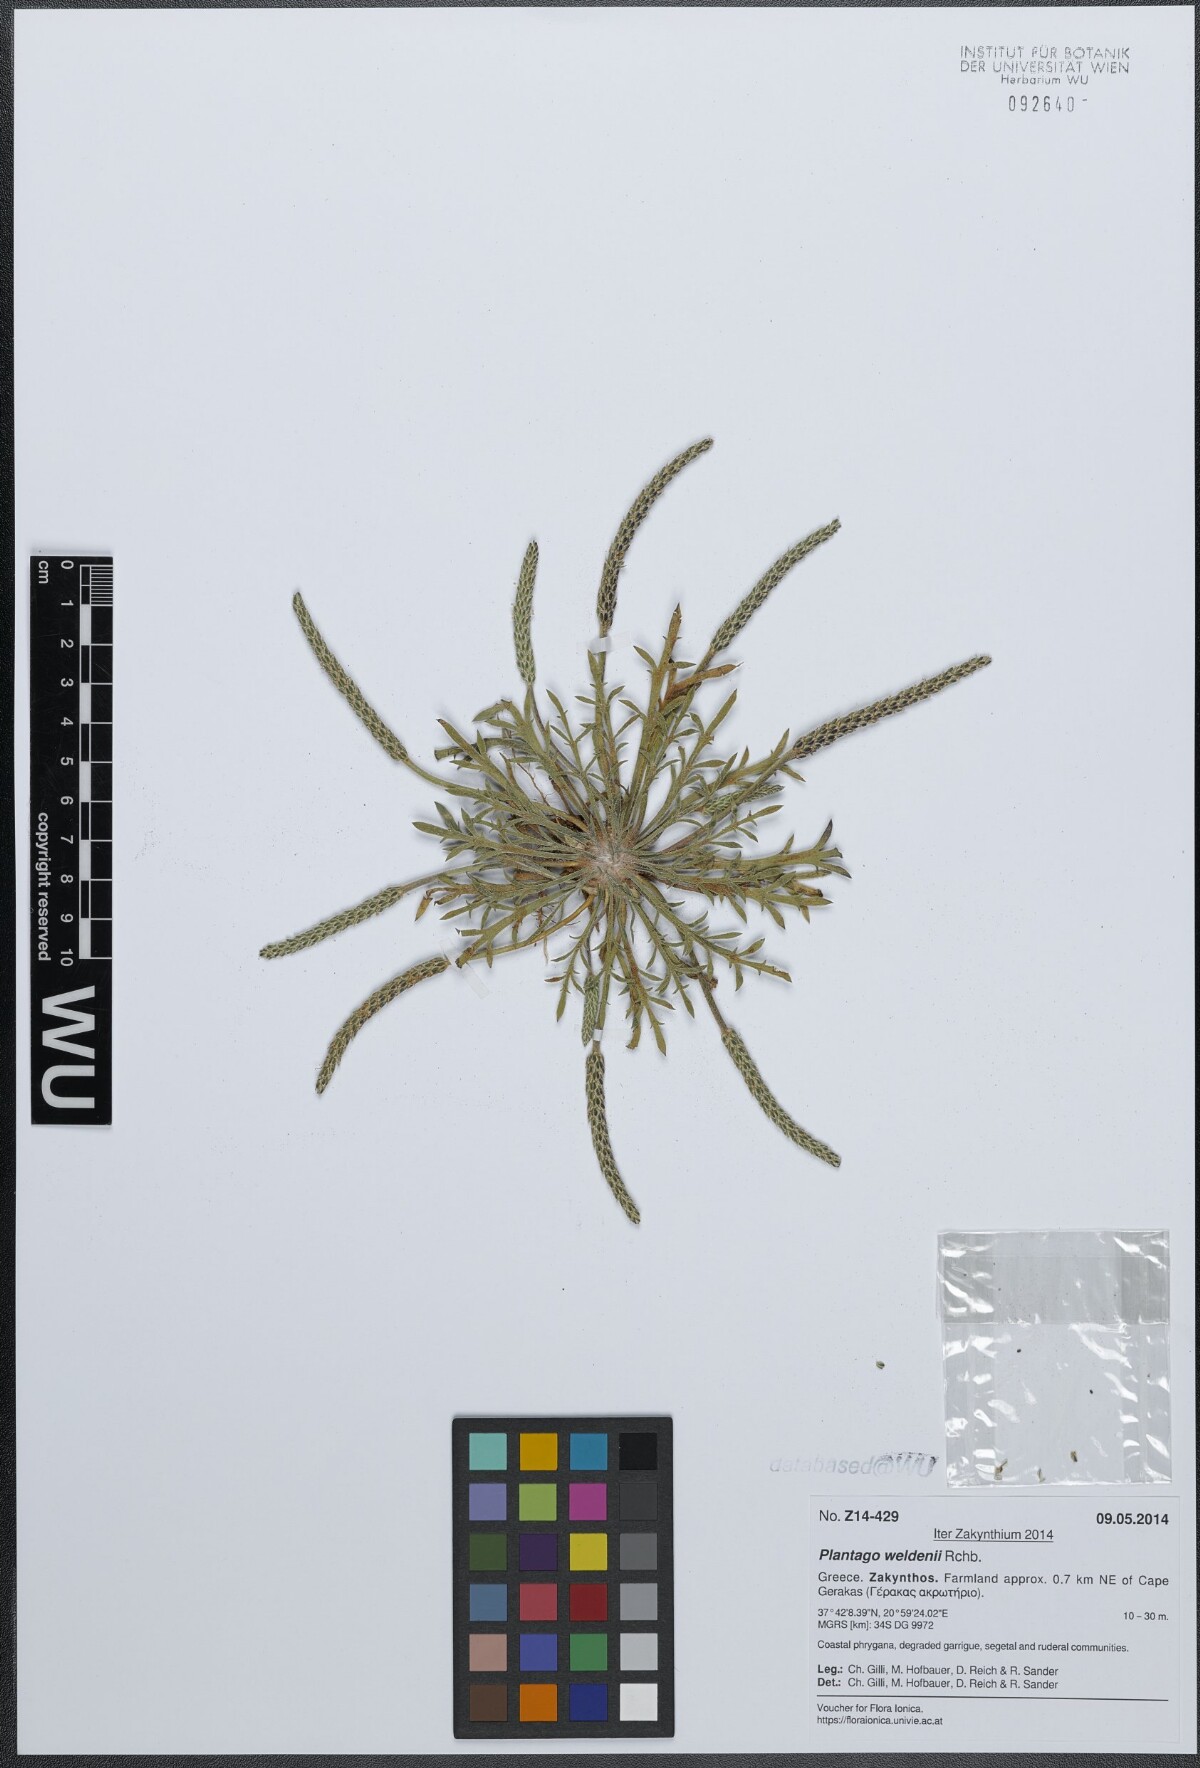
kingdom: Plantae
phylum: Tracheophyta
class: Magnoliopsida
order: Lamiales
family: Plantaginaceae
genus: Plantago
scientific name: Plantago weldenii
